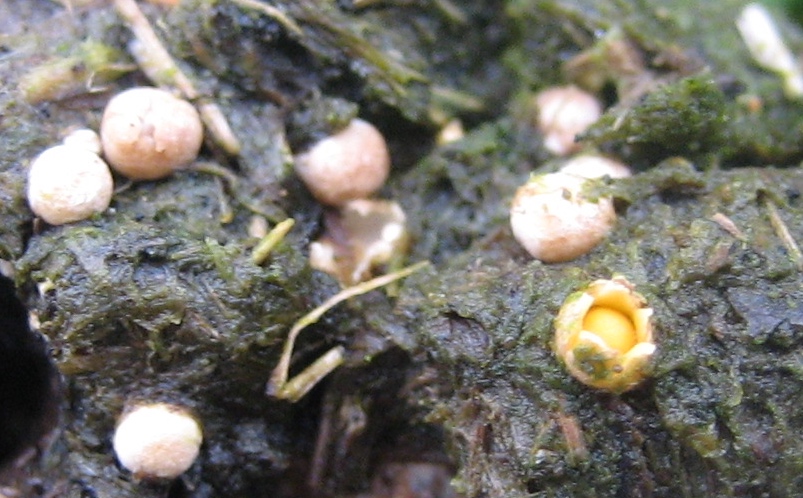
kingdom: Fungi
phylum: Basidiomycota
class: Agaricomycetes
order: Geastrales
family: Geastraceae
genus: Sphaerobolus
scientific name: Sphaerobolus stellatus
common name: bombekaster
